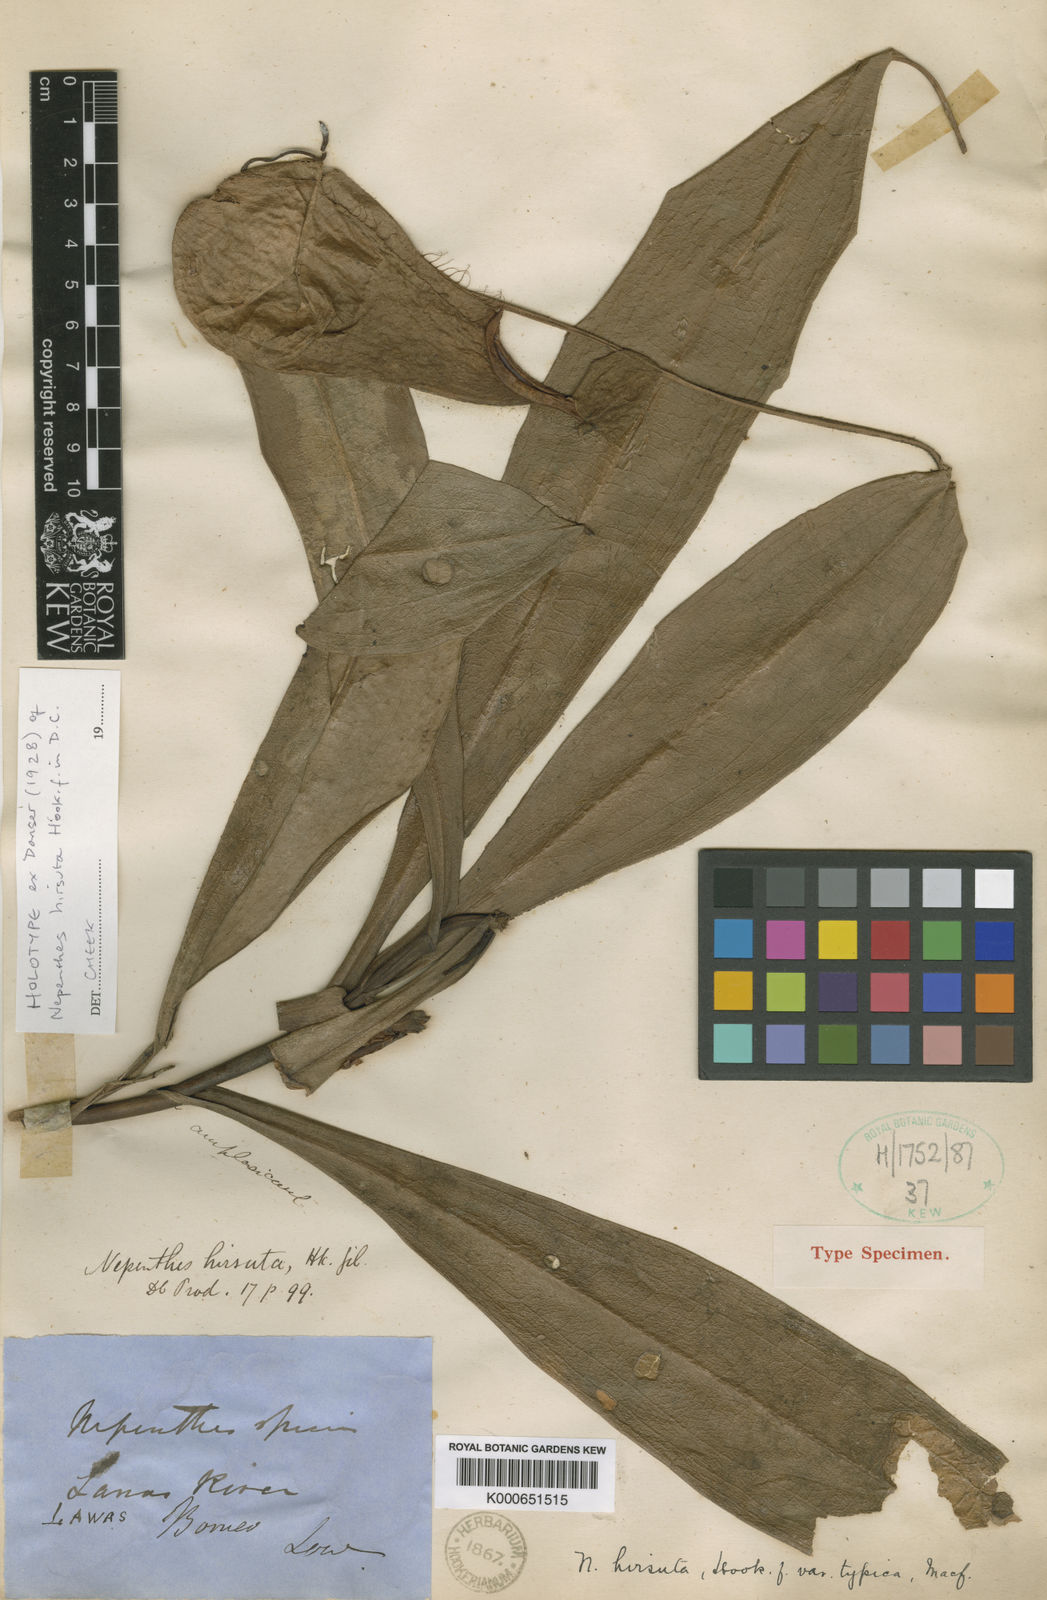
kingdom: Plantae
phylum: Tracheophyta
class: Magnoliopsida
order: Caryophyllales
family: Nepenthaceae
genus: Nepenthes
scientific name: Nepenthes hirsuta
